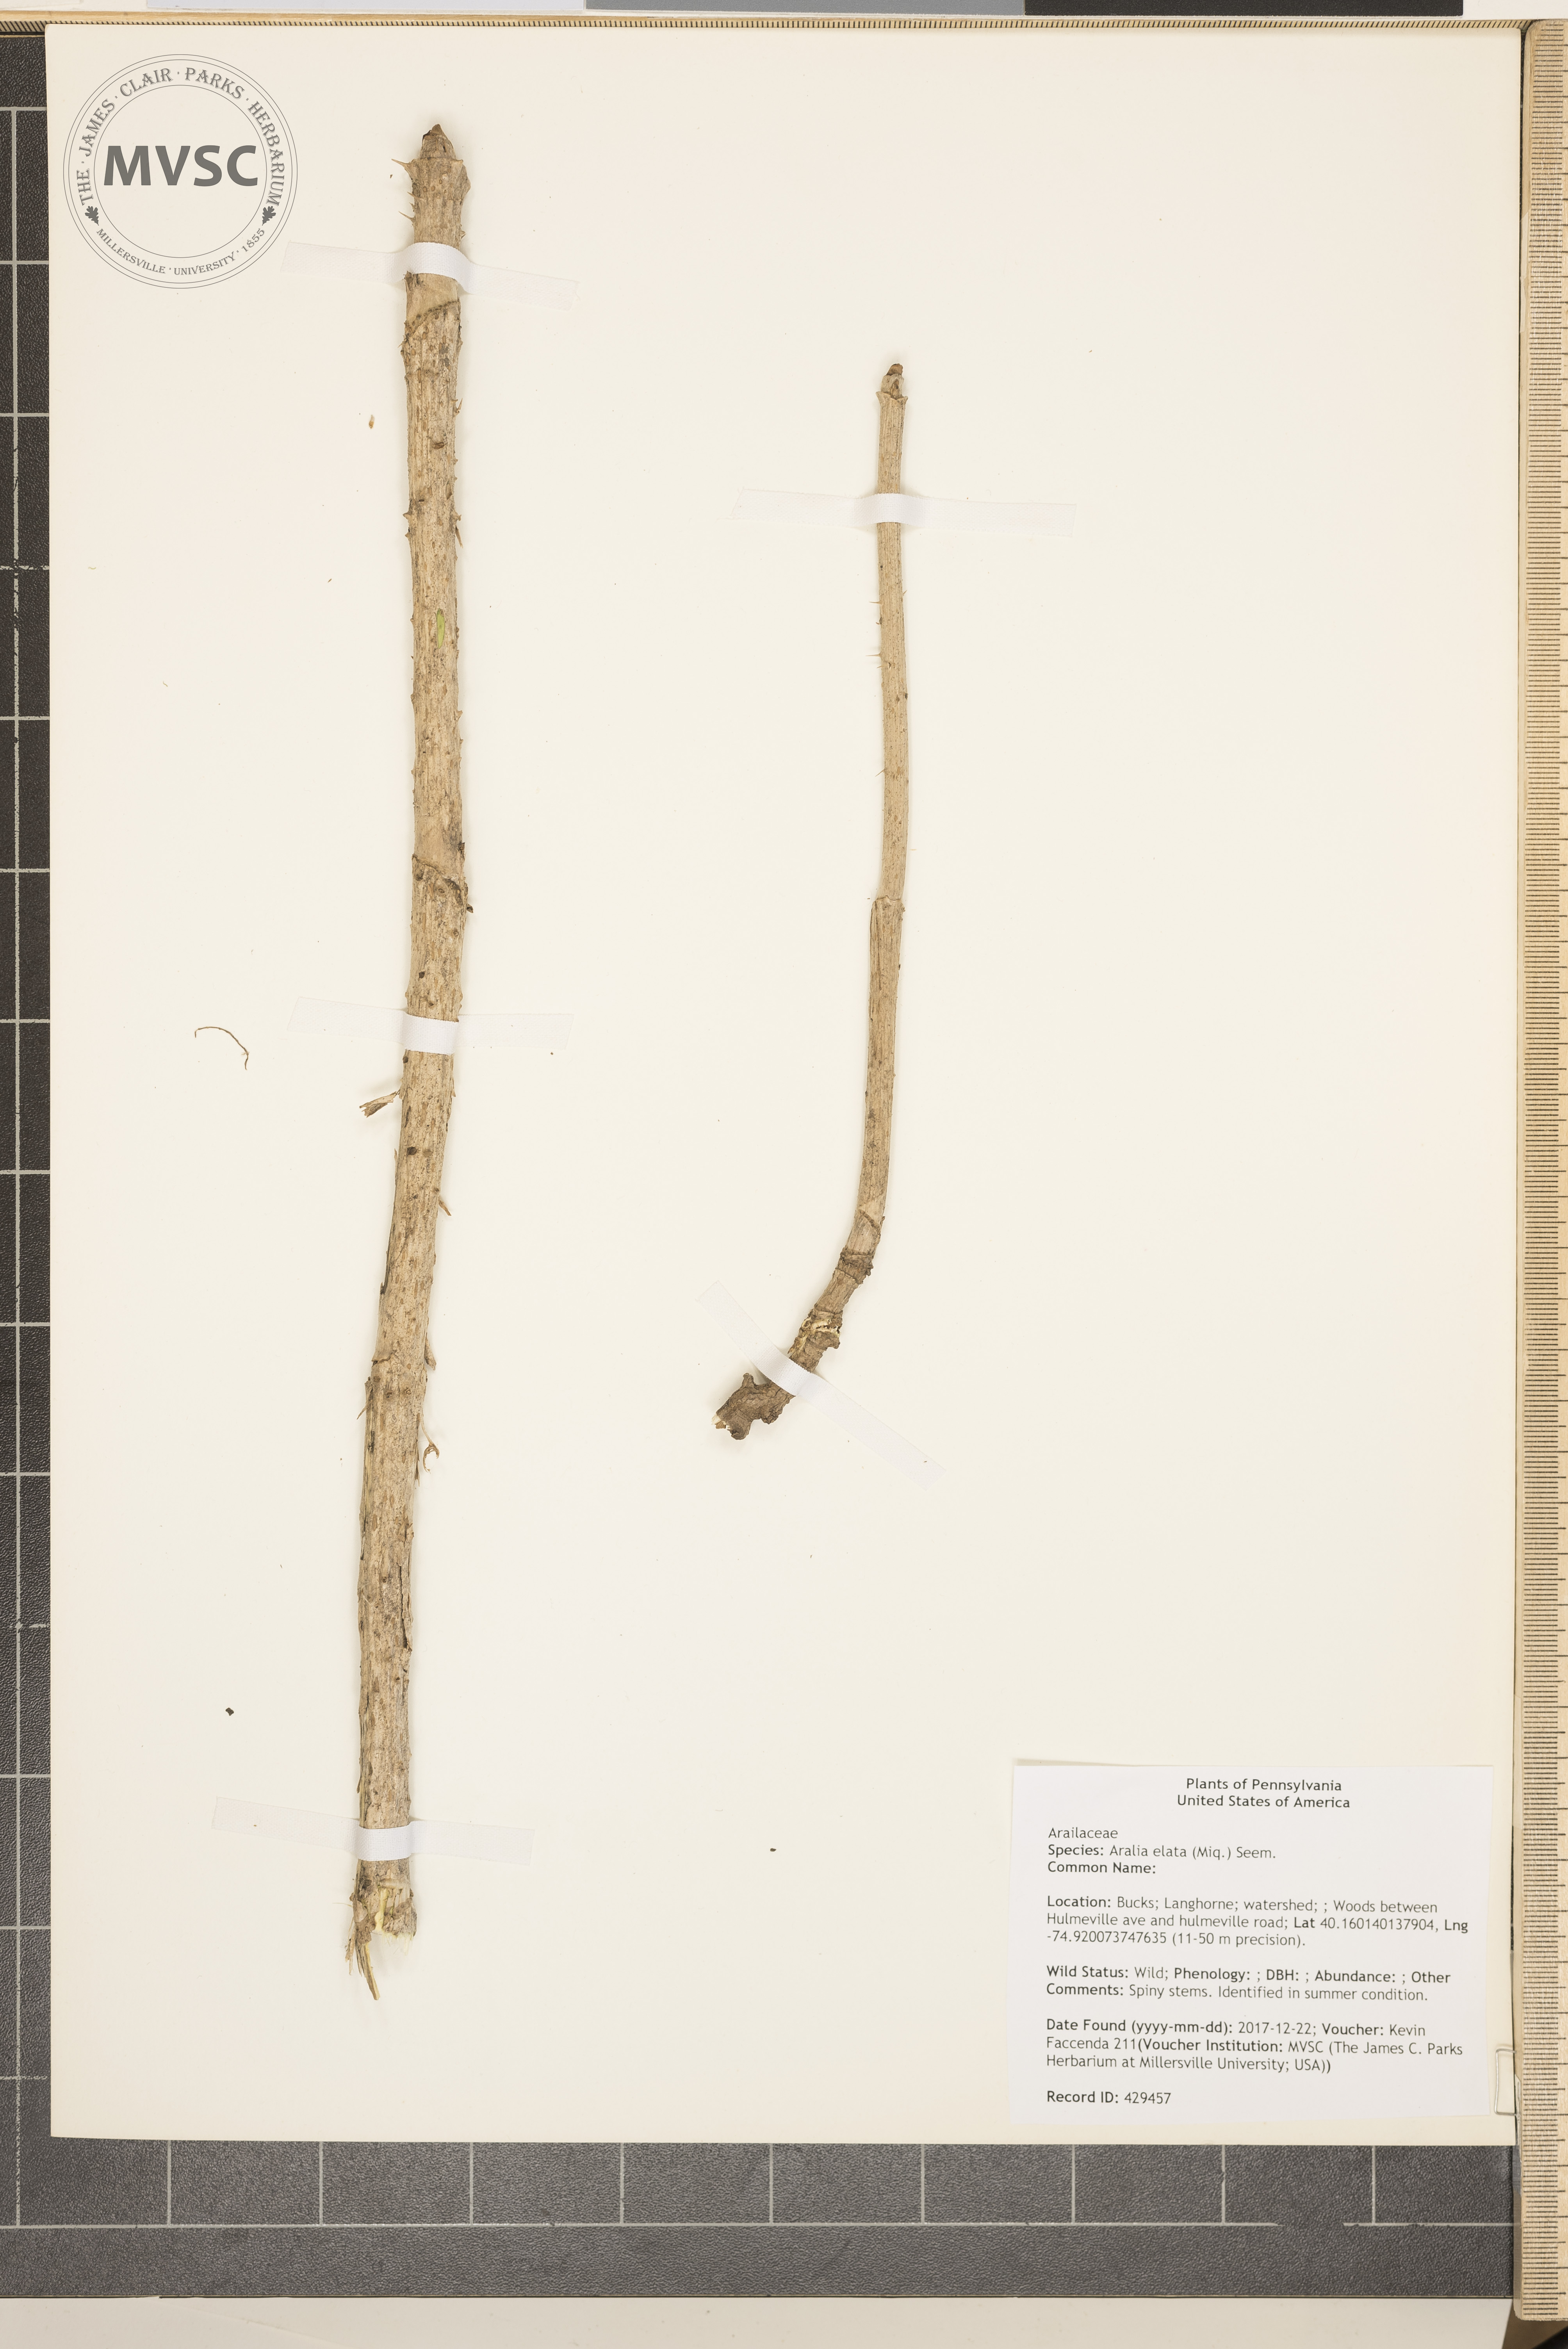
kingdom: Plantae
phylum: Tracheophyta
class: Magnoliopsida
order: Apiales
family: Araliaceae
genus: Aralia
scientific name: Aralia elata
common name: Japanese angelica-tree
